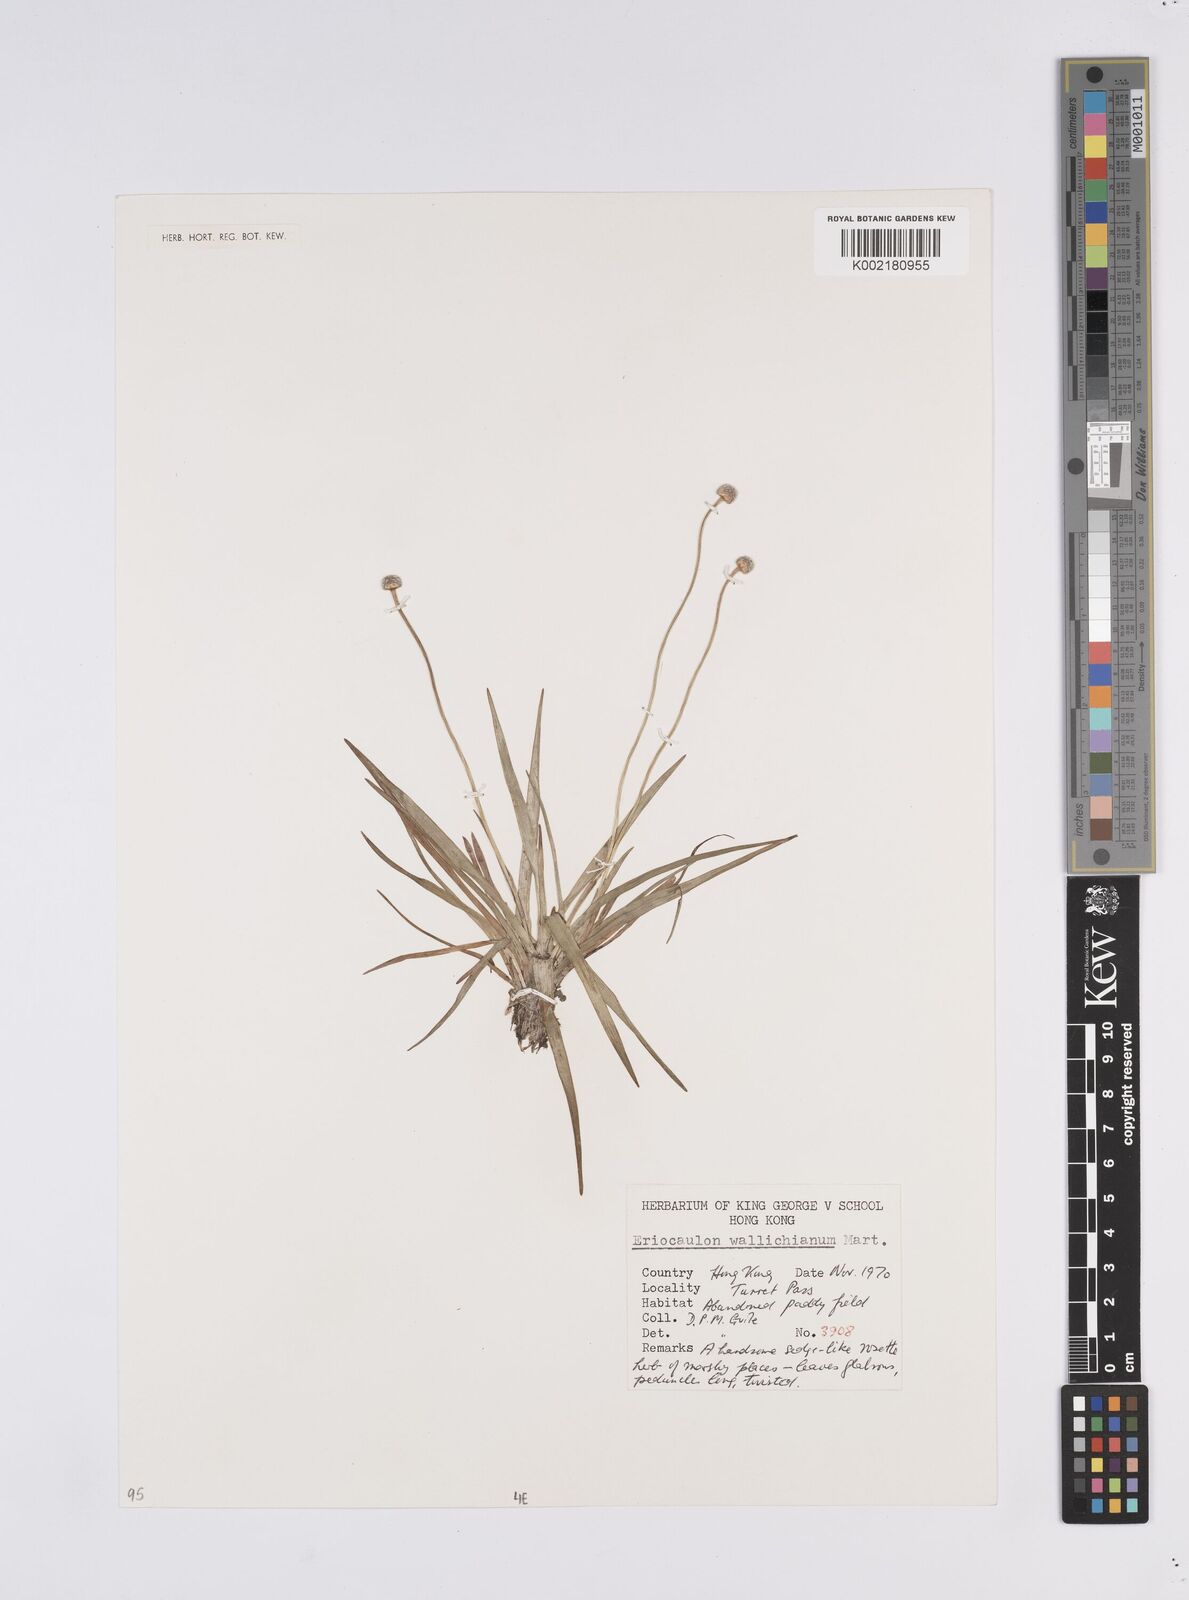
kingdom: Plantae
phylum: Tracheophyta
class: Liliopsida
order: Poales
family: Eriocaulaceae
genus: Eriocaulon
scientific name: Eriocaulon australe
